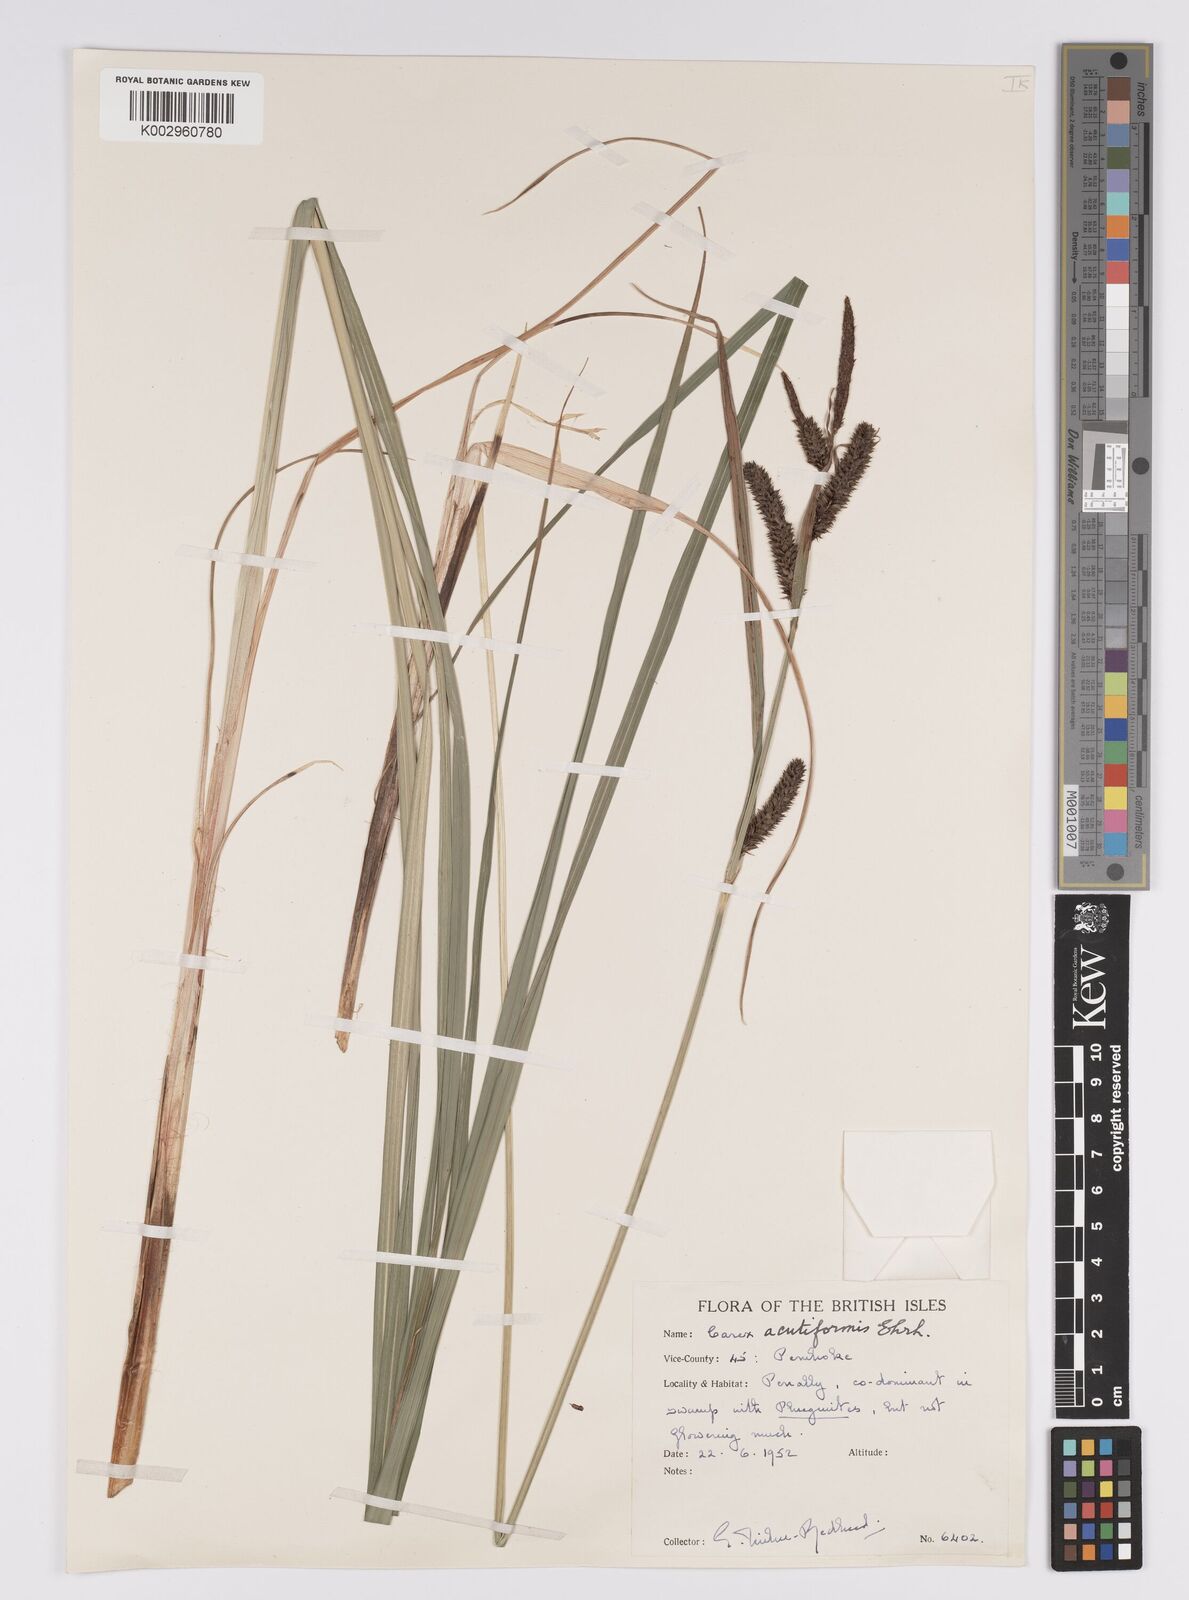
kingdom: Plantae
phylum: Tracheophyta
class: Liliopsida
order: Poales
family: Cyperaceae
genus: Carex
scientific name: Carex acutiformis
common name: Lesser pond-sedge
